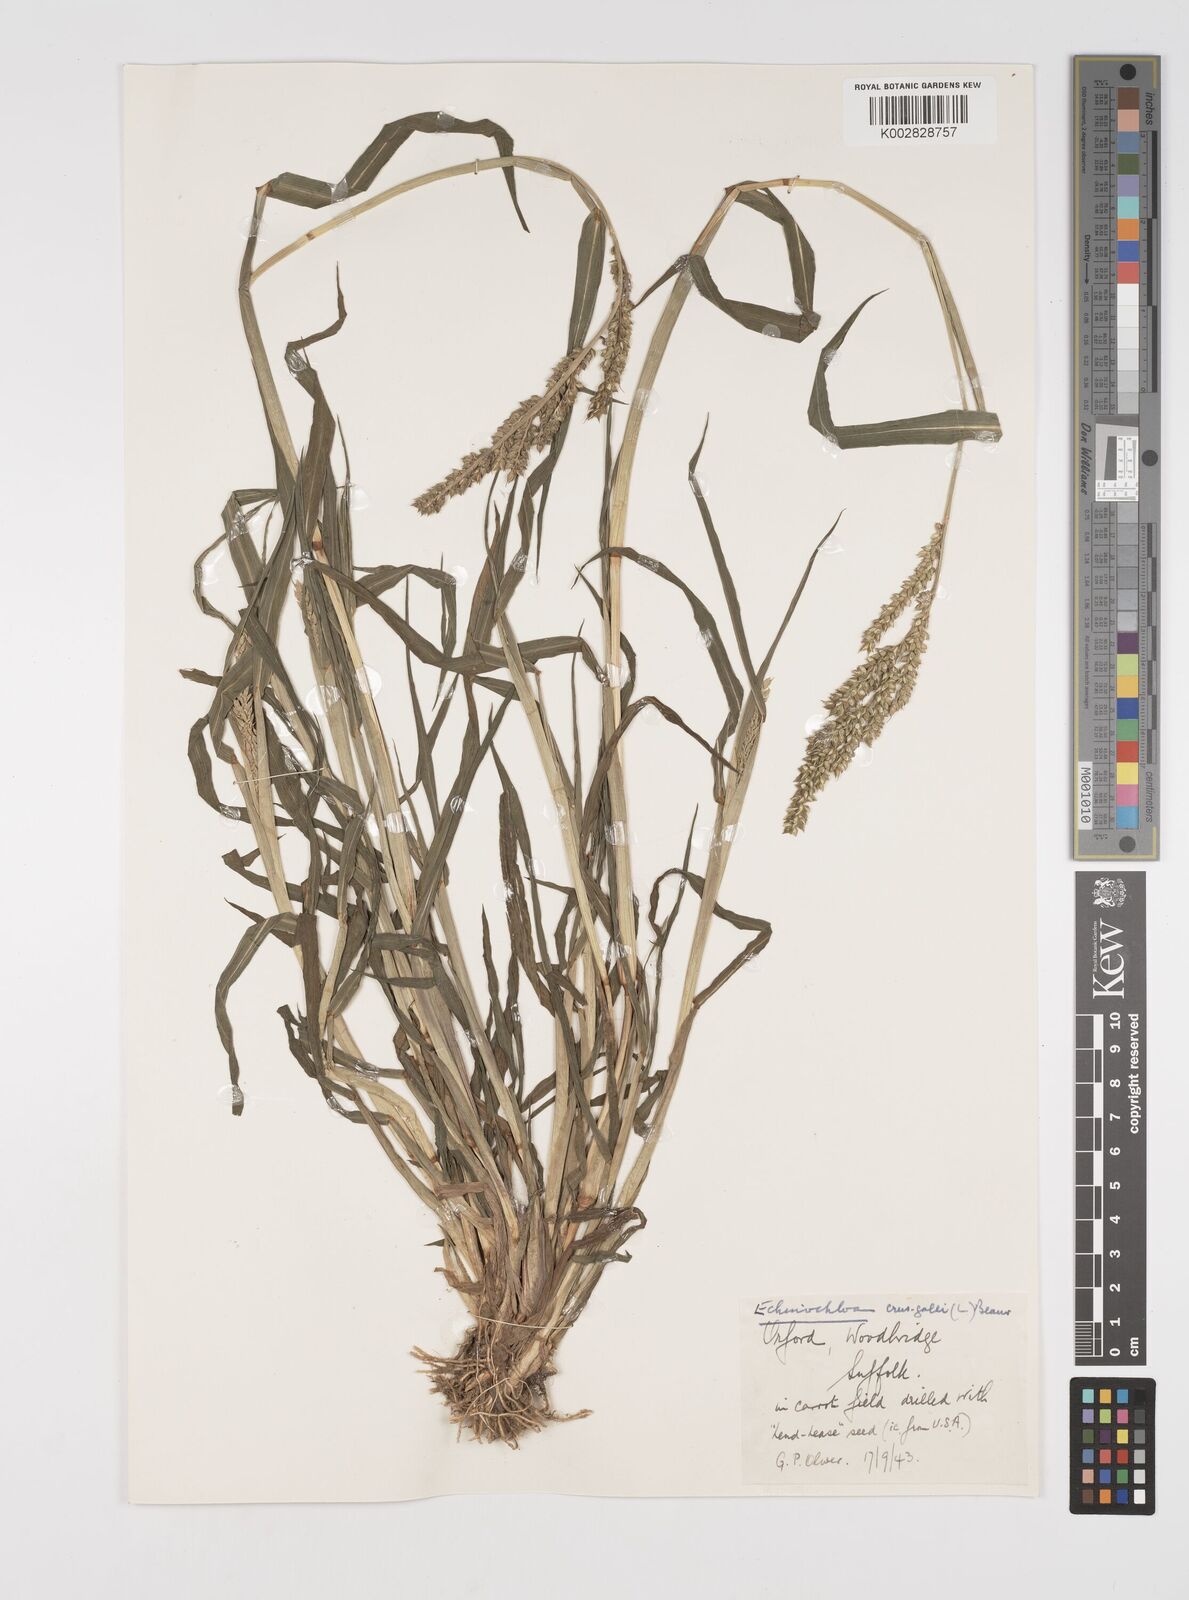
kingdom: Plantae
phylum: Tracheophyta
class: Liliopsida
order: Poales
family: Poaceae
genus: Echinochloa
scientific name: Echinochloa crus-galli
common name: Cockspur
